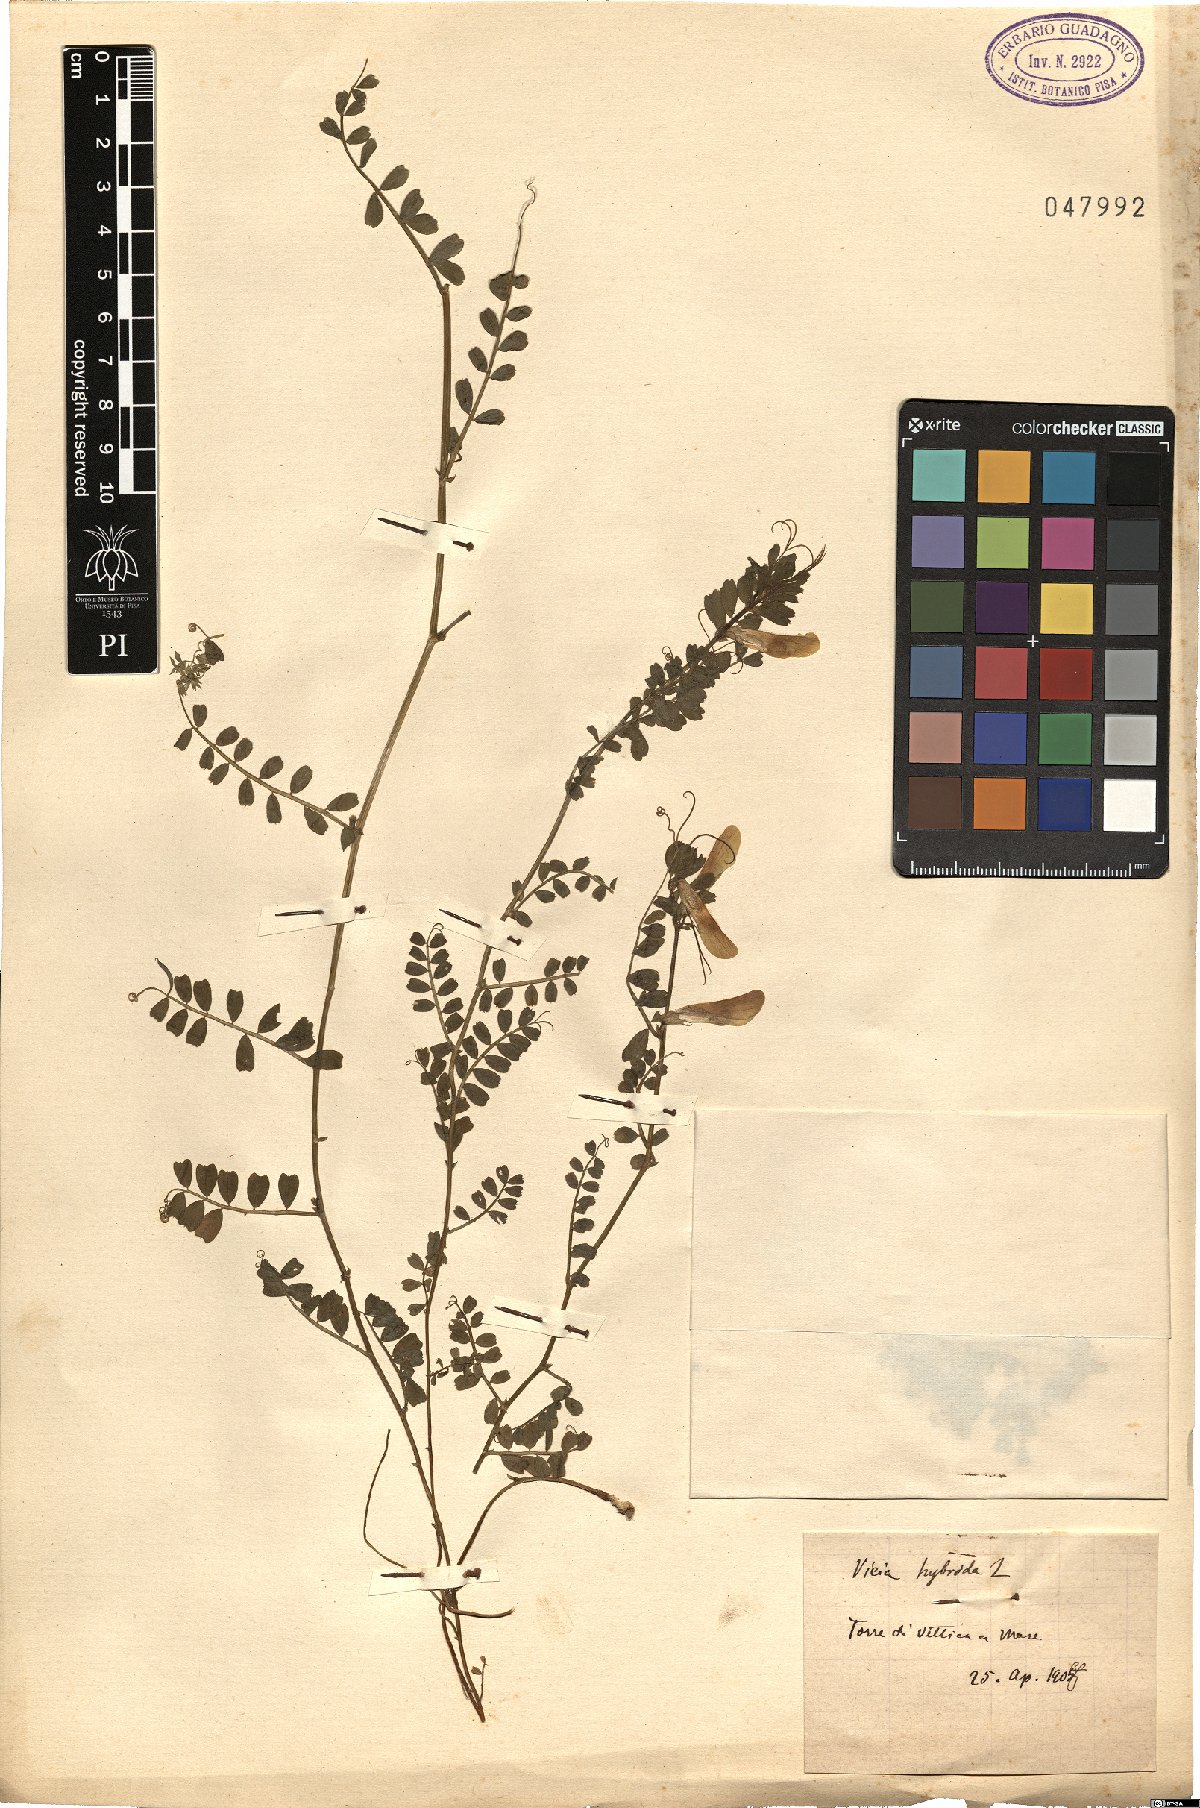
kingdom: Plantae
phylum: Tracheophyta
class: Magnoliopsida
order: Fabales
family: Fabaceae
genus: Vicia
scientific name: Vicia hybrida
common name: Hairy yellow vetch
